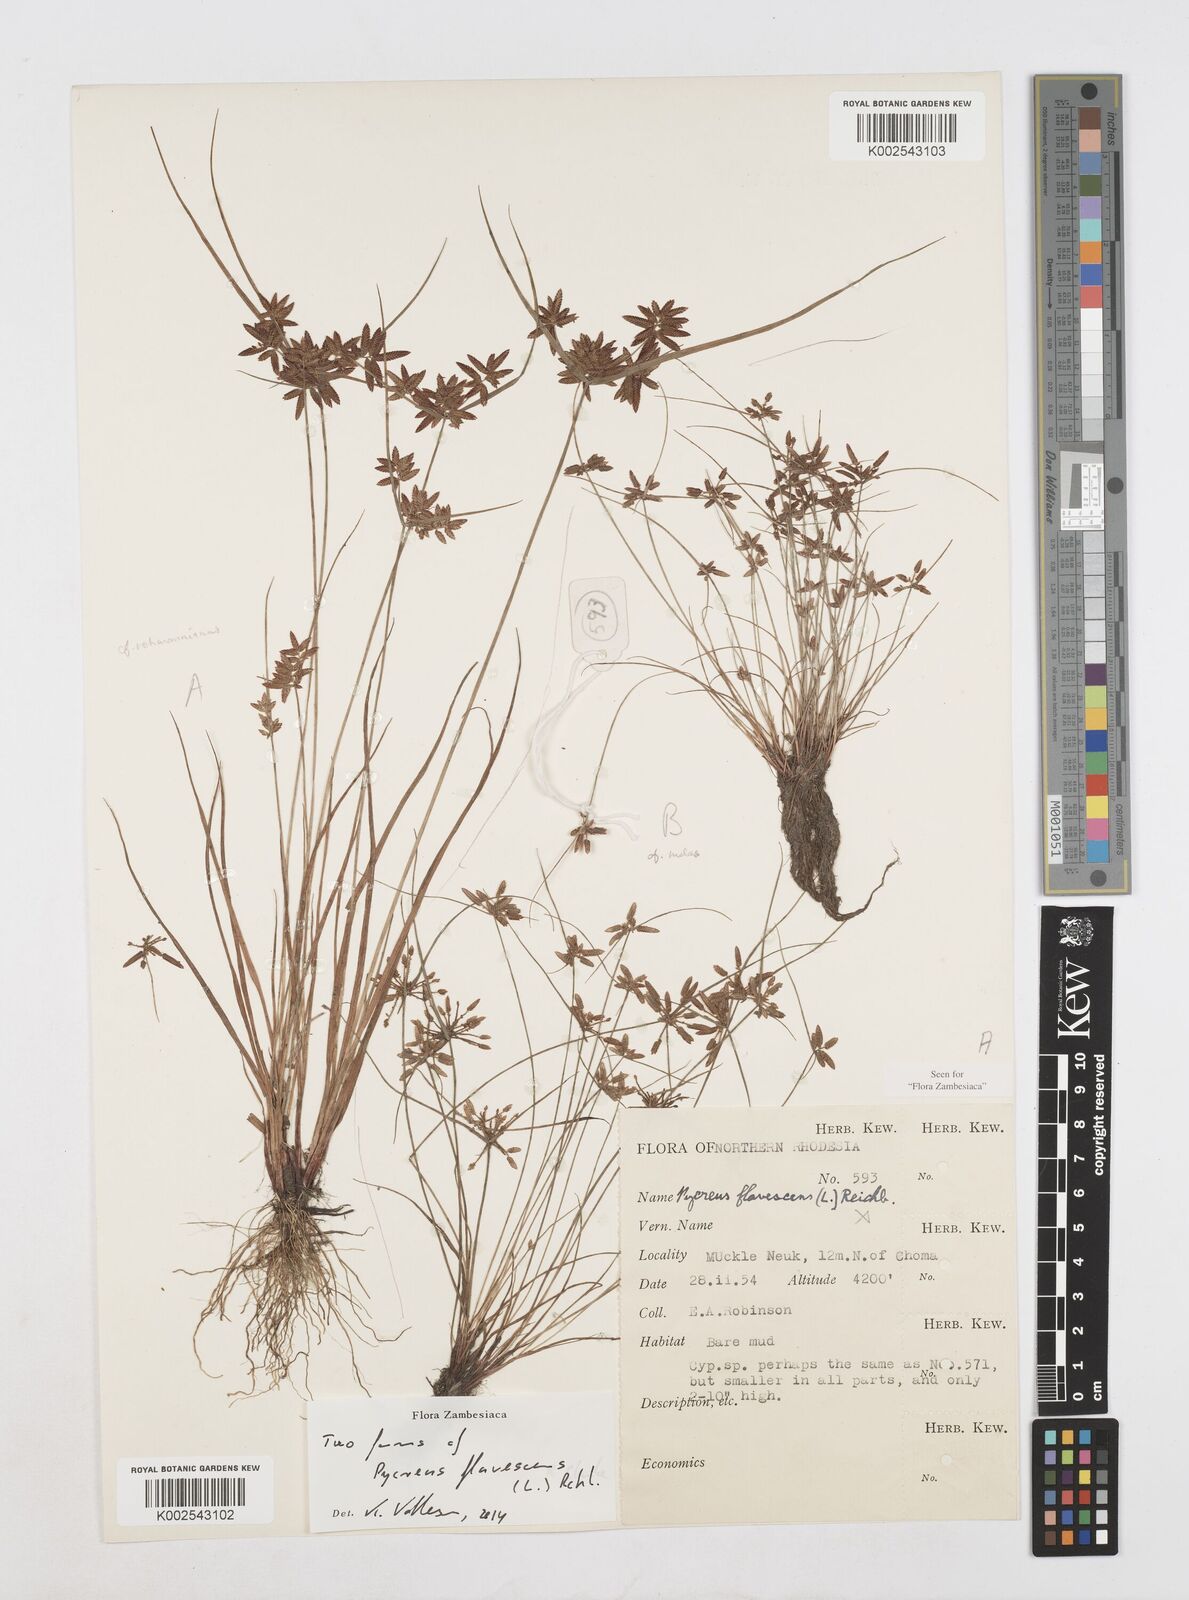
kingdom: Plantae
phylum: Tracheophyta
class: Liliopsida
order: Poales
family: Cyperaceae
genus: Cyperus
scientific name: Cyperus flavescens
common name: Yellow galingale
